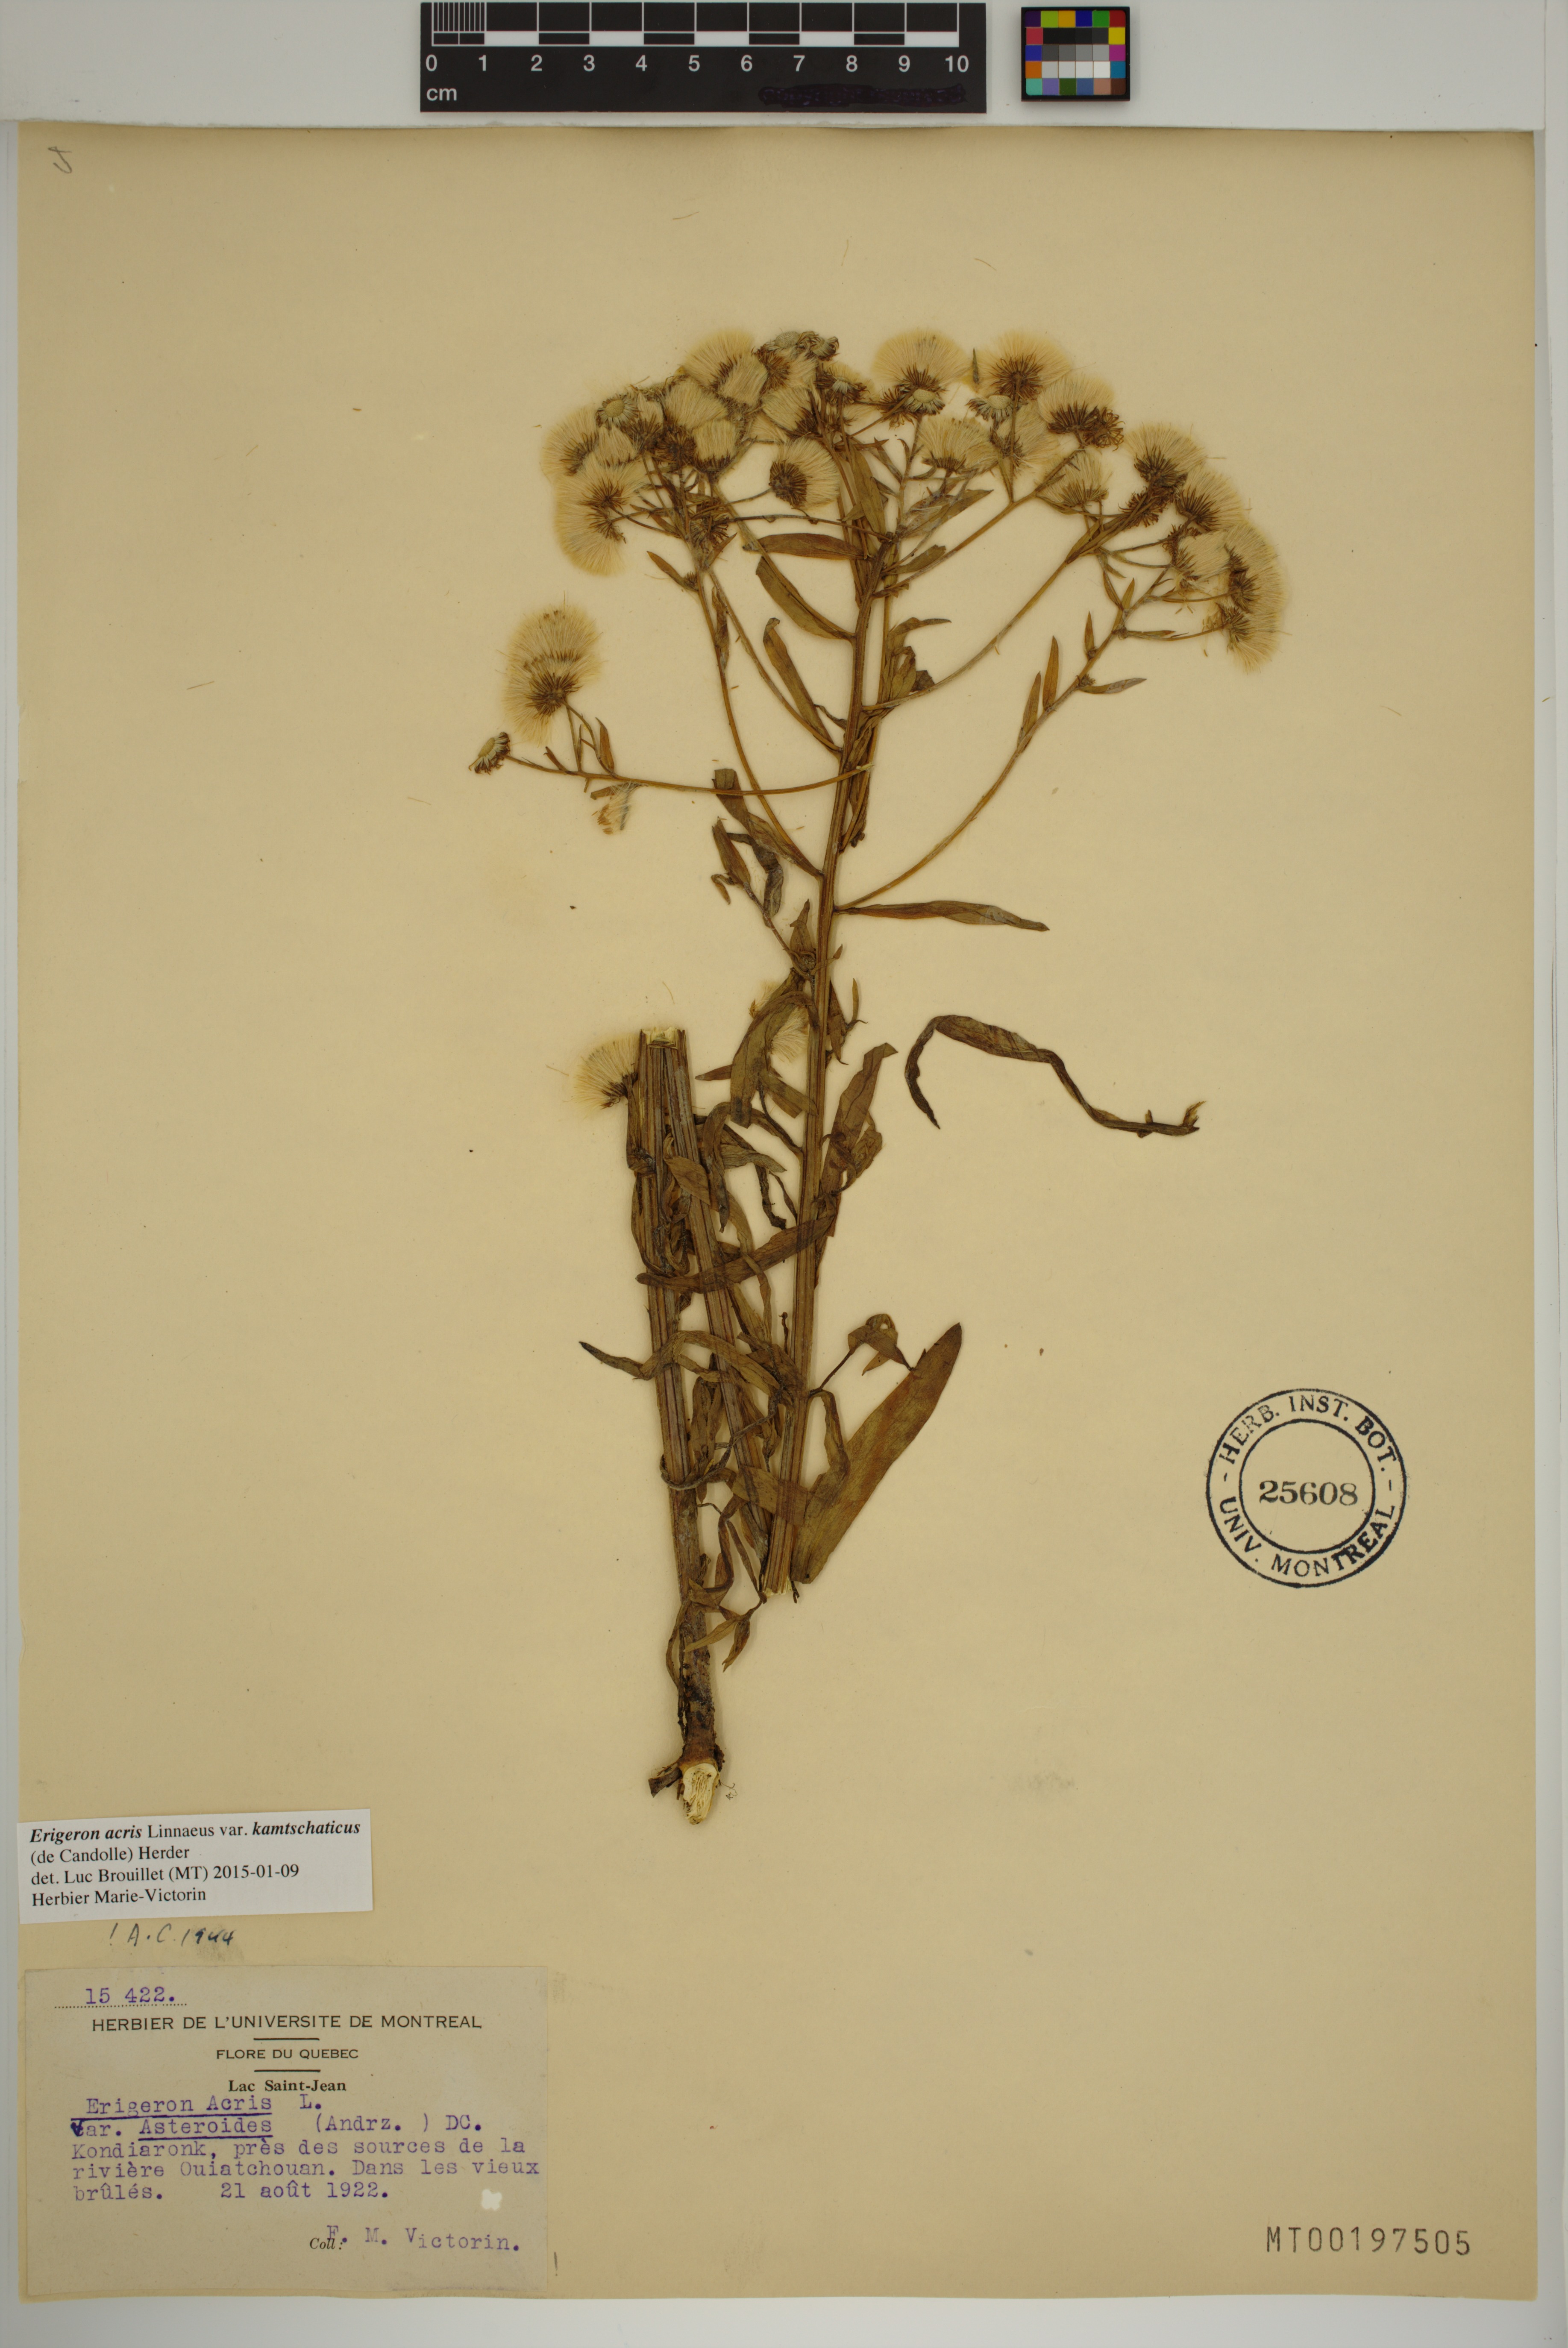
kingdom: Plantae
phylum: Tracheophyta
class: Magnoliopsida
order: Asterales
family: Asteraceae
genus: Erigeron
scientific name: Erigeron kamtschaticus
